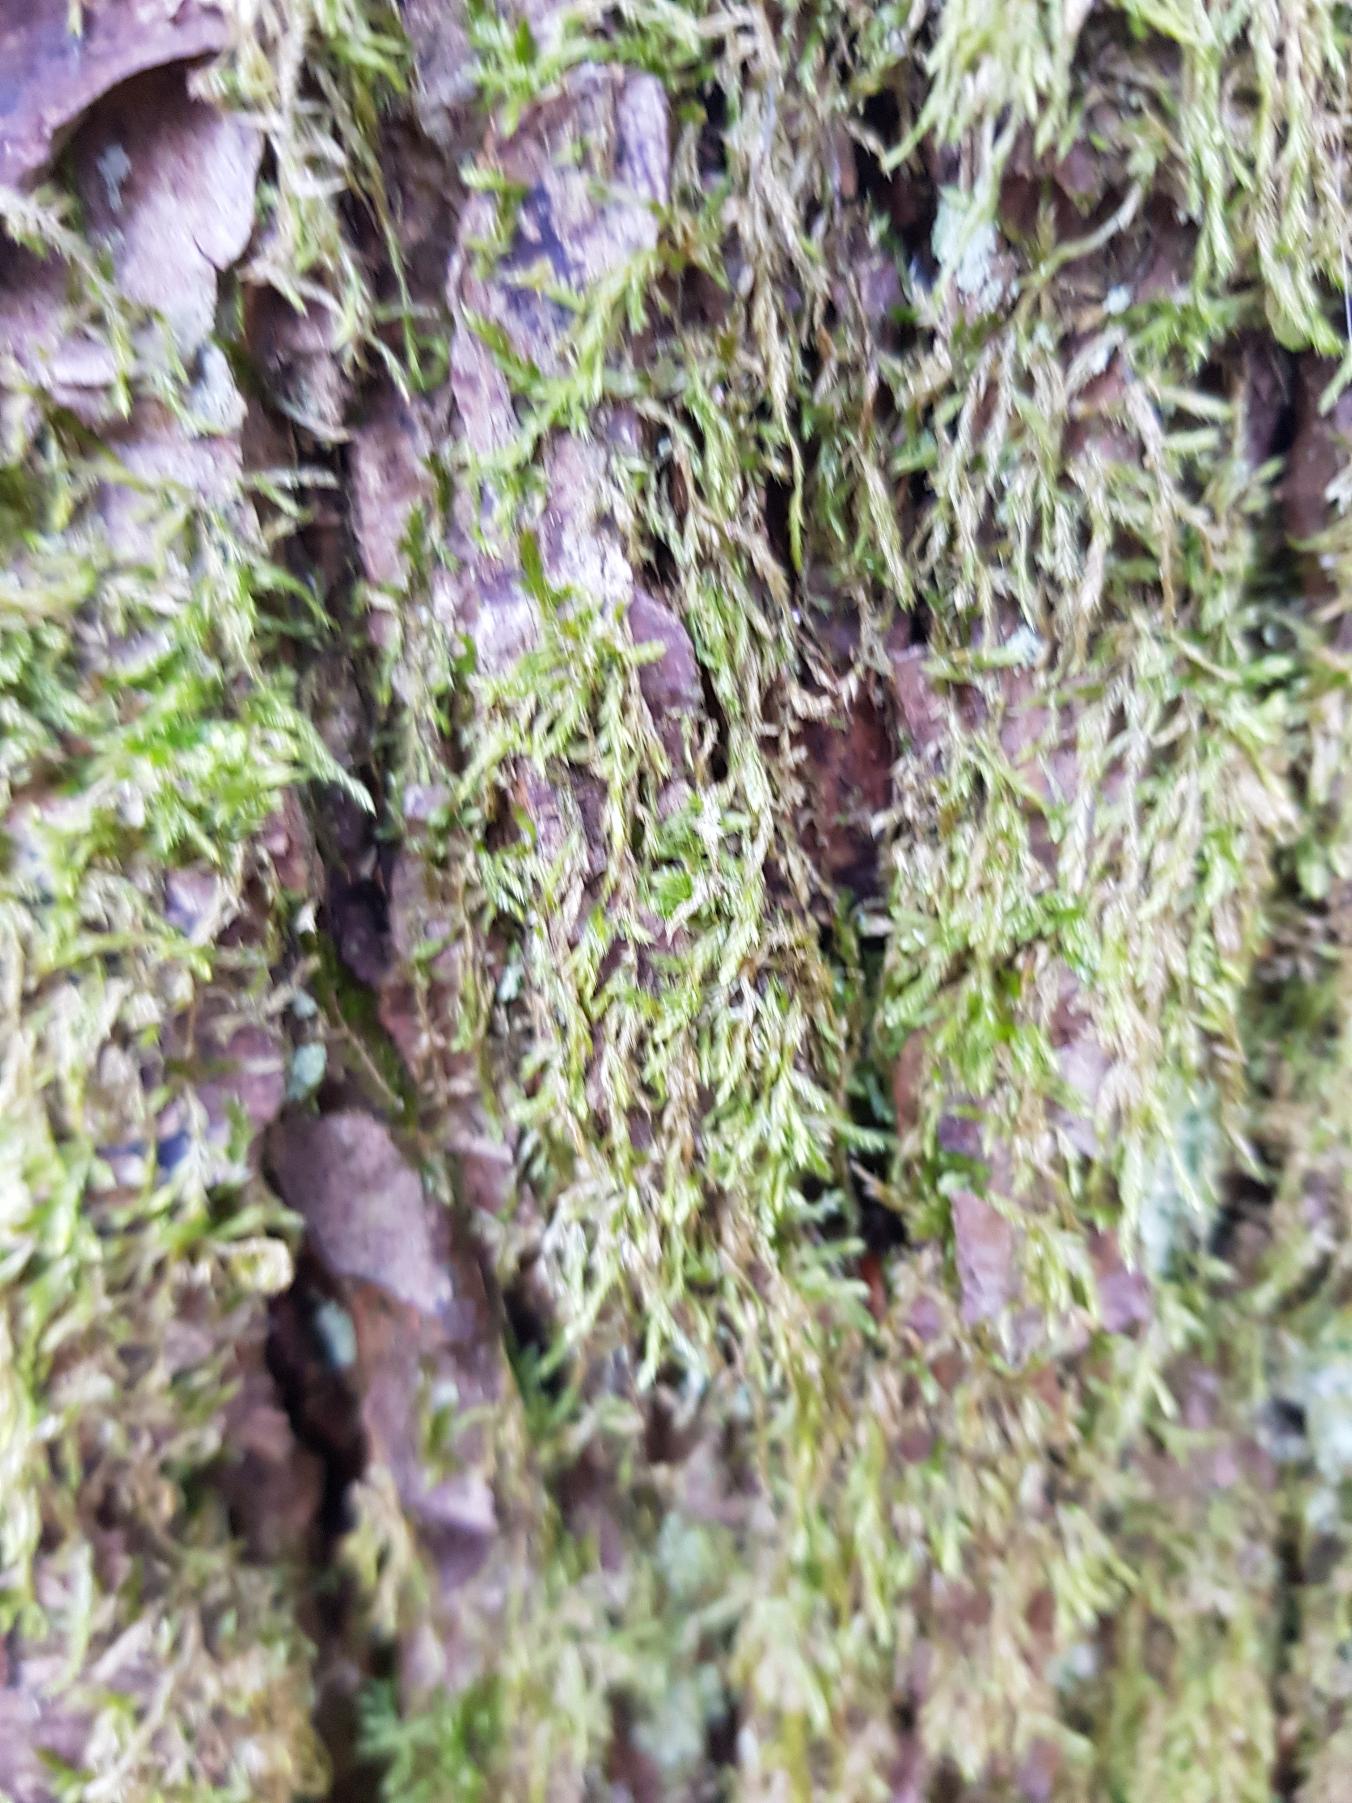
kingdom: Plantae
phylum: Bryophyta
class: Bryopsida
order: Hypnales
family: Hypnaceae
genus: Hypnum
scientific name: Hypnum
